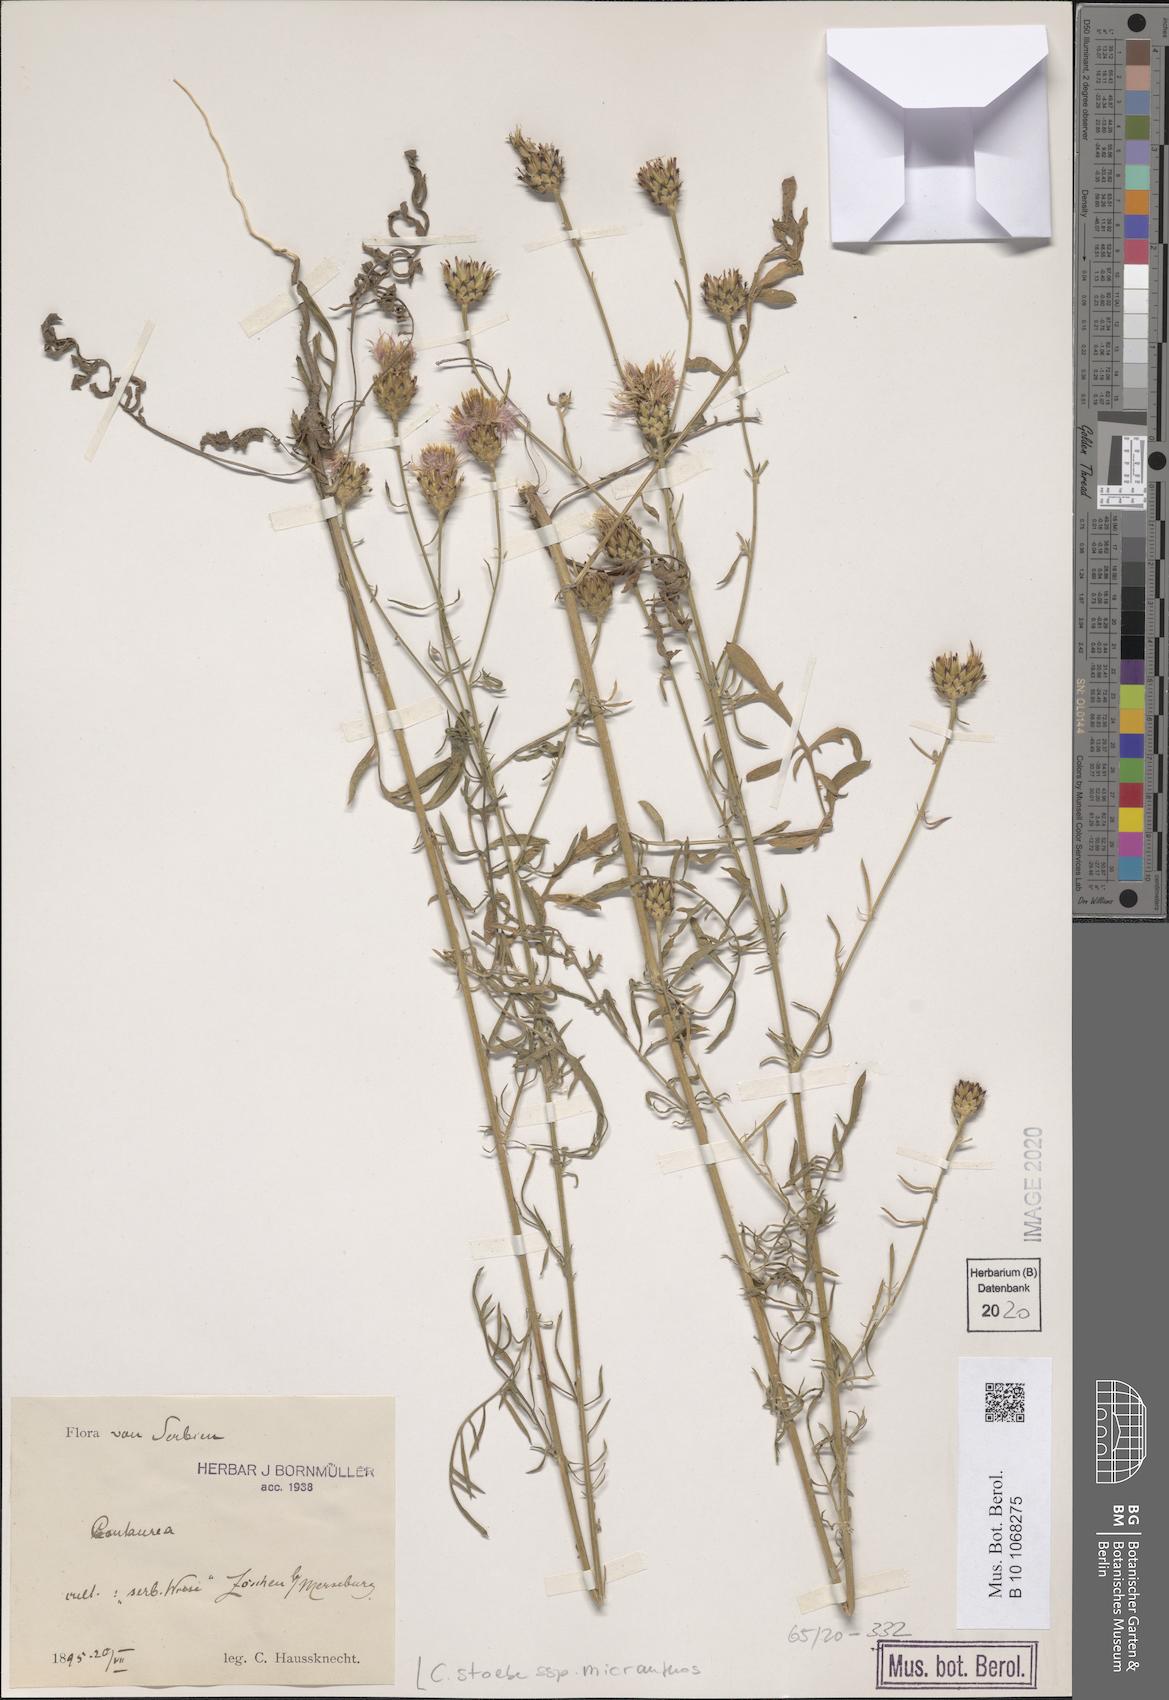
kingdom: Plantae
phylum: Tracheophyta
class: Magnoliopsida
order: Asterales
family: Asteraceae
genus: Centaurea
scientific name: Centaurea australis
